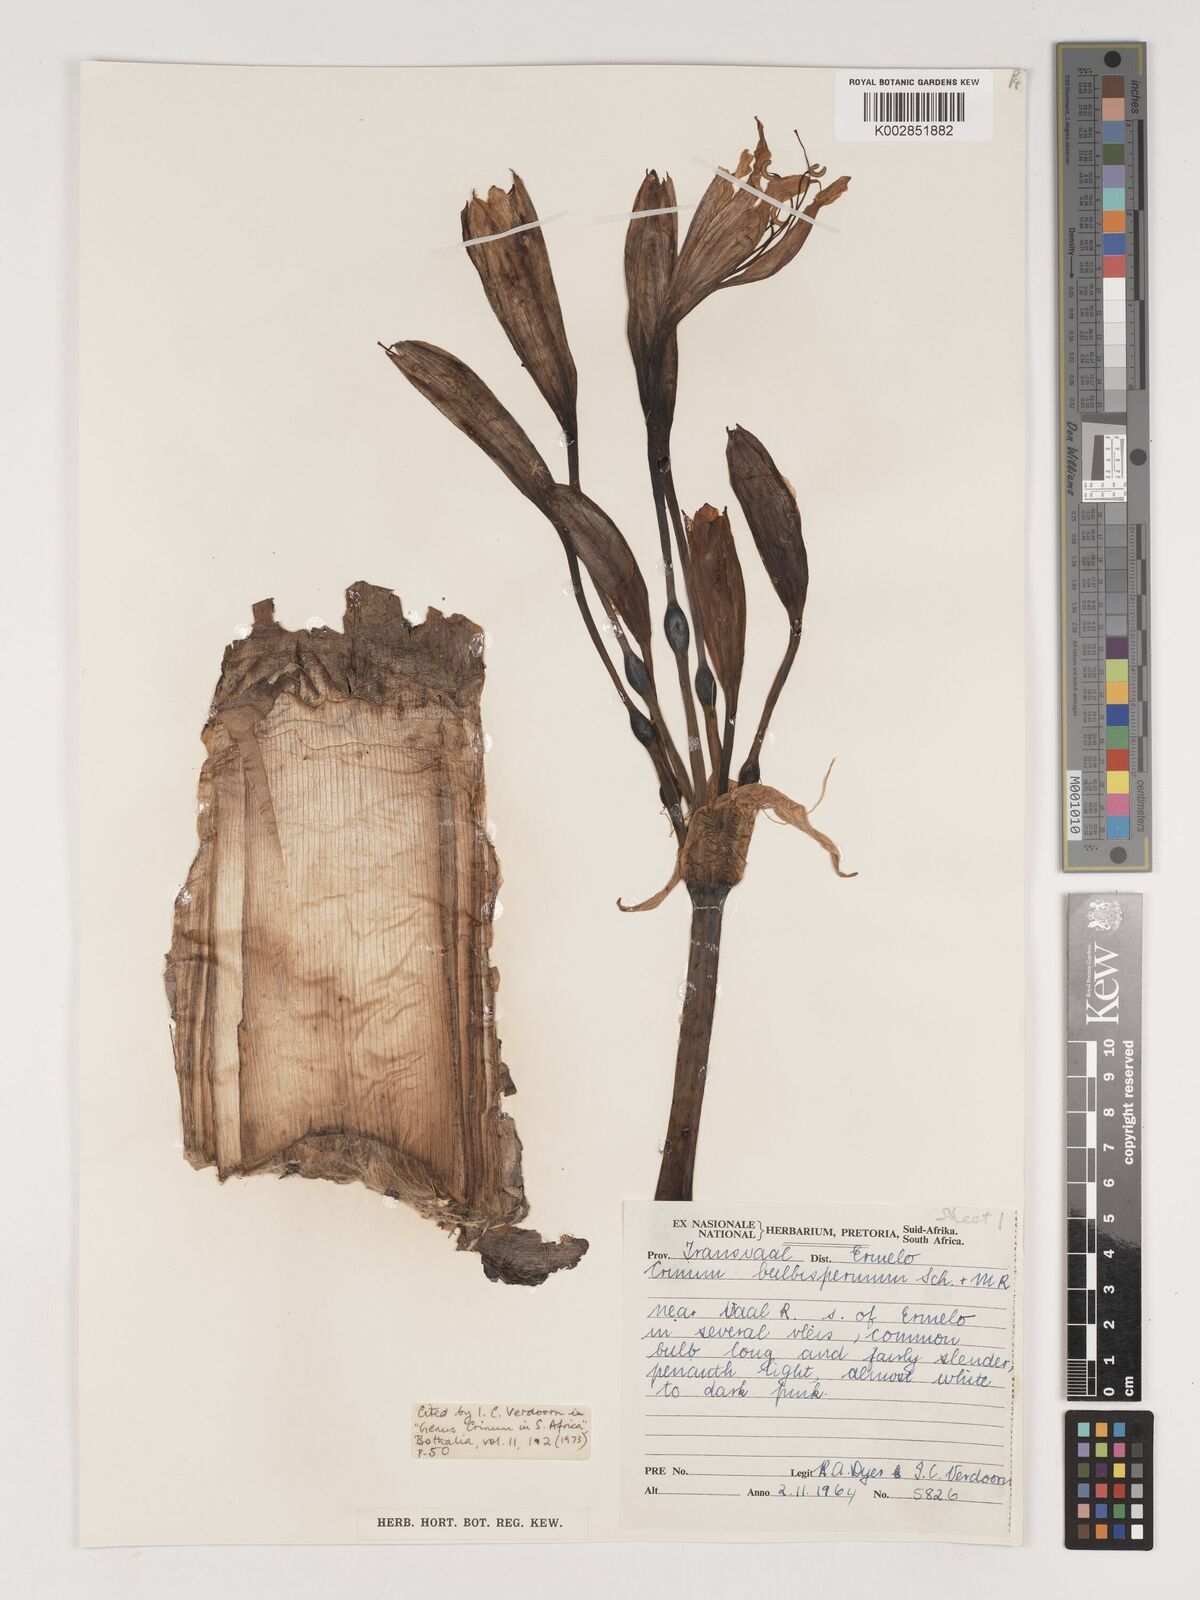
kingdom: Plantae
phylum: Tracheophyta
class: Liliopsida
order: Asparagales
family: Amaryllidaceae
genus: Crinum
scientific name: Crinum bulbispermum
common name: Hardy swamplily
